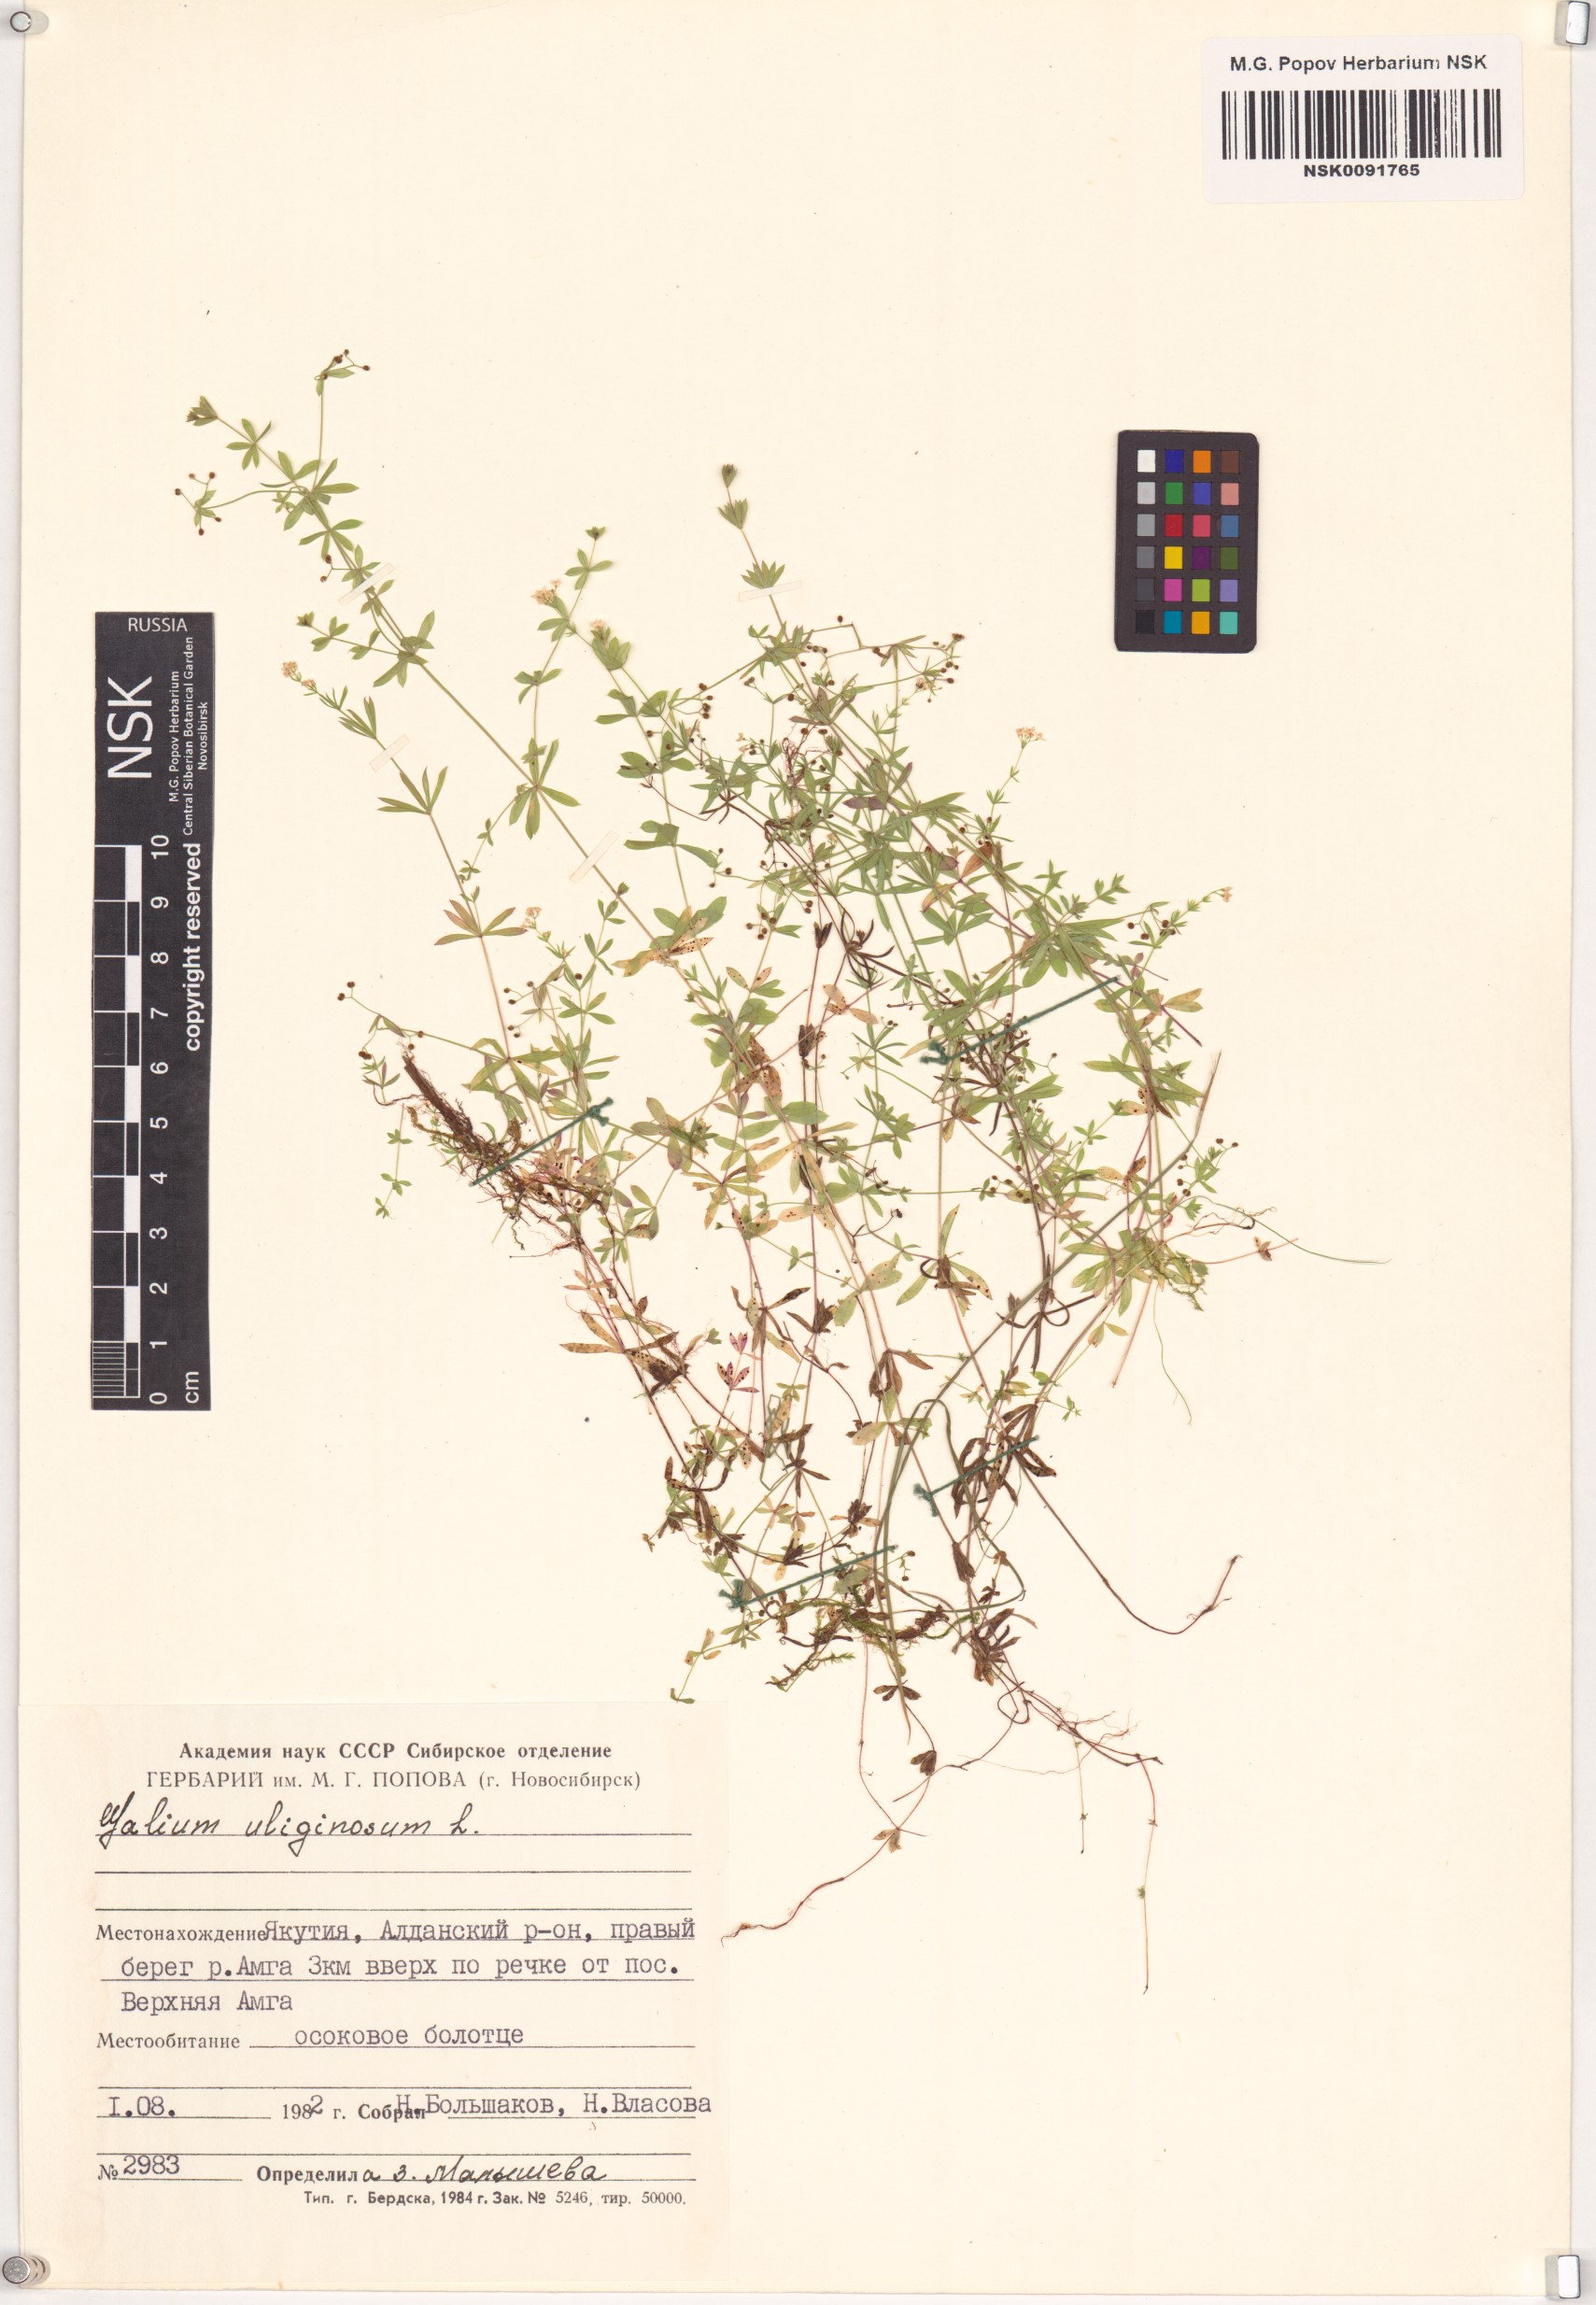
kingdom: Plantae
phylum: Tracheophyta
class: Magnoliopsida
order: Gentianales
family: Rubiaceae
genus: Galium
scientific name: Galium uliginosum
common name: Fen bedstraw
